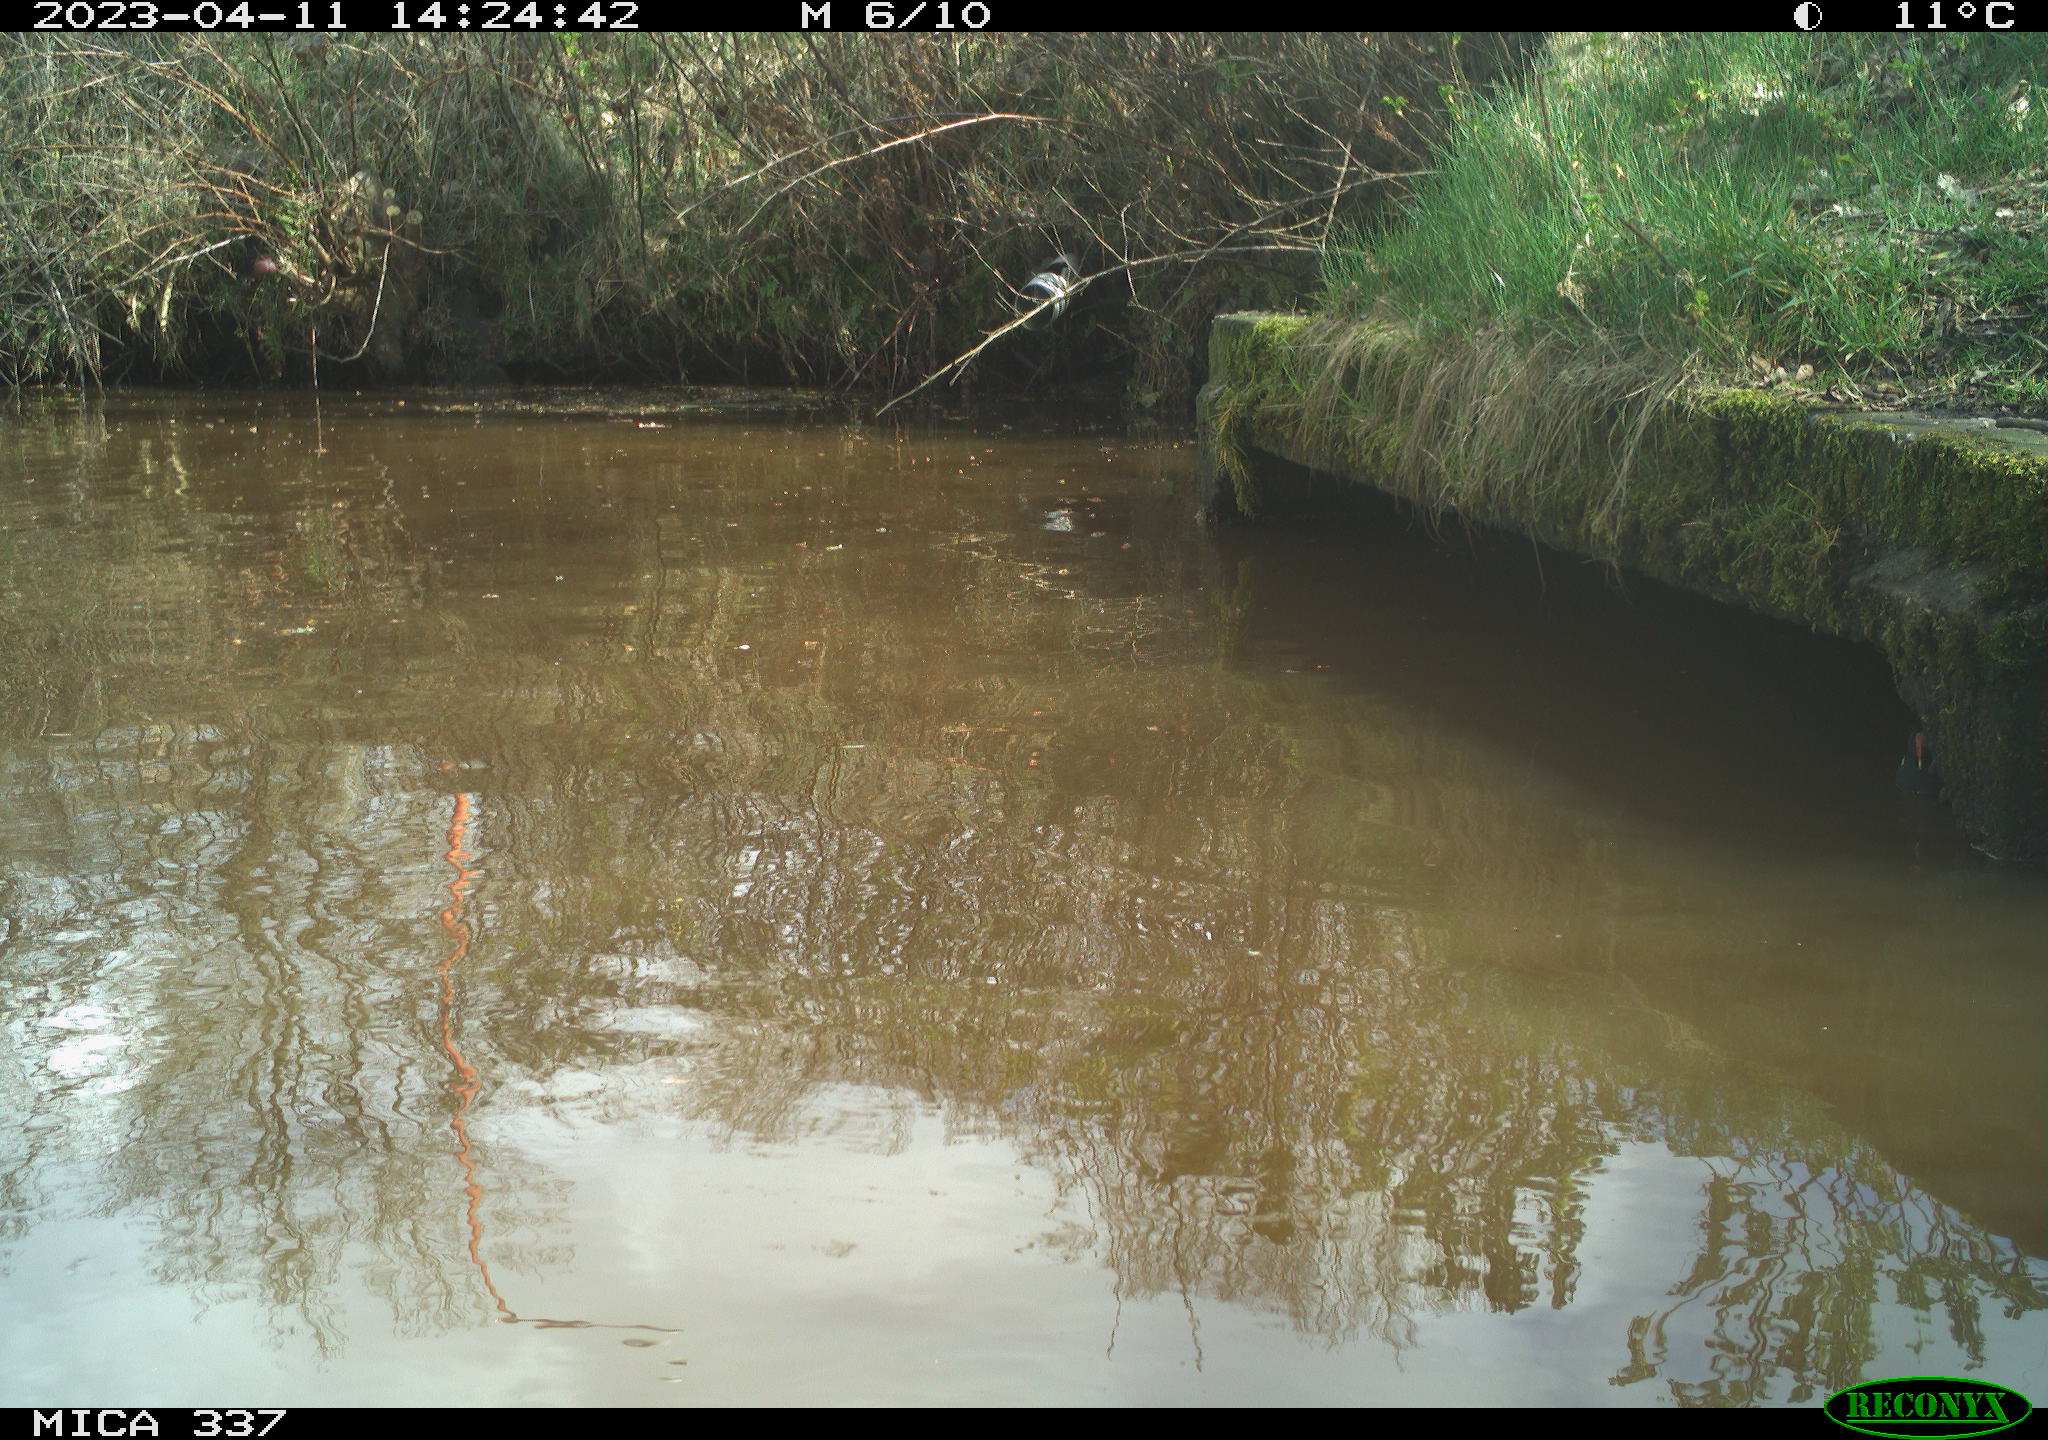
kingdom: Animalia
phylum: Chordata
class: Aves
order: Gruiformes
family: Rallidae
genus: Gallinula
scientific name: Gallinula chloropus
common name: Common moorhen
